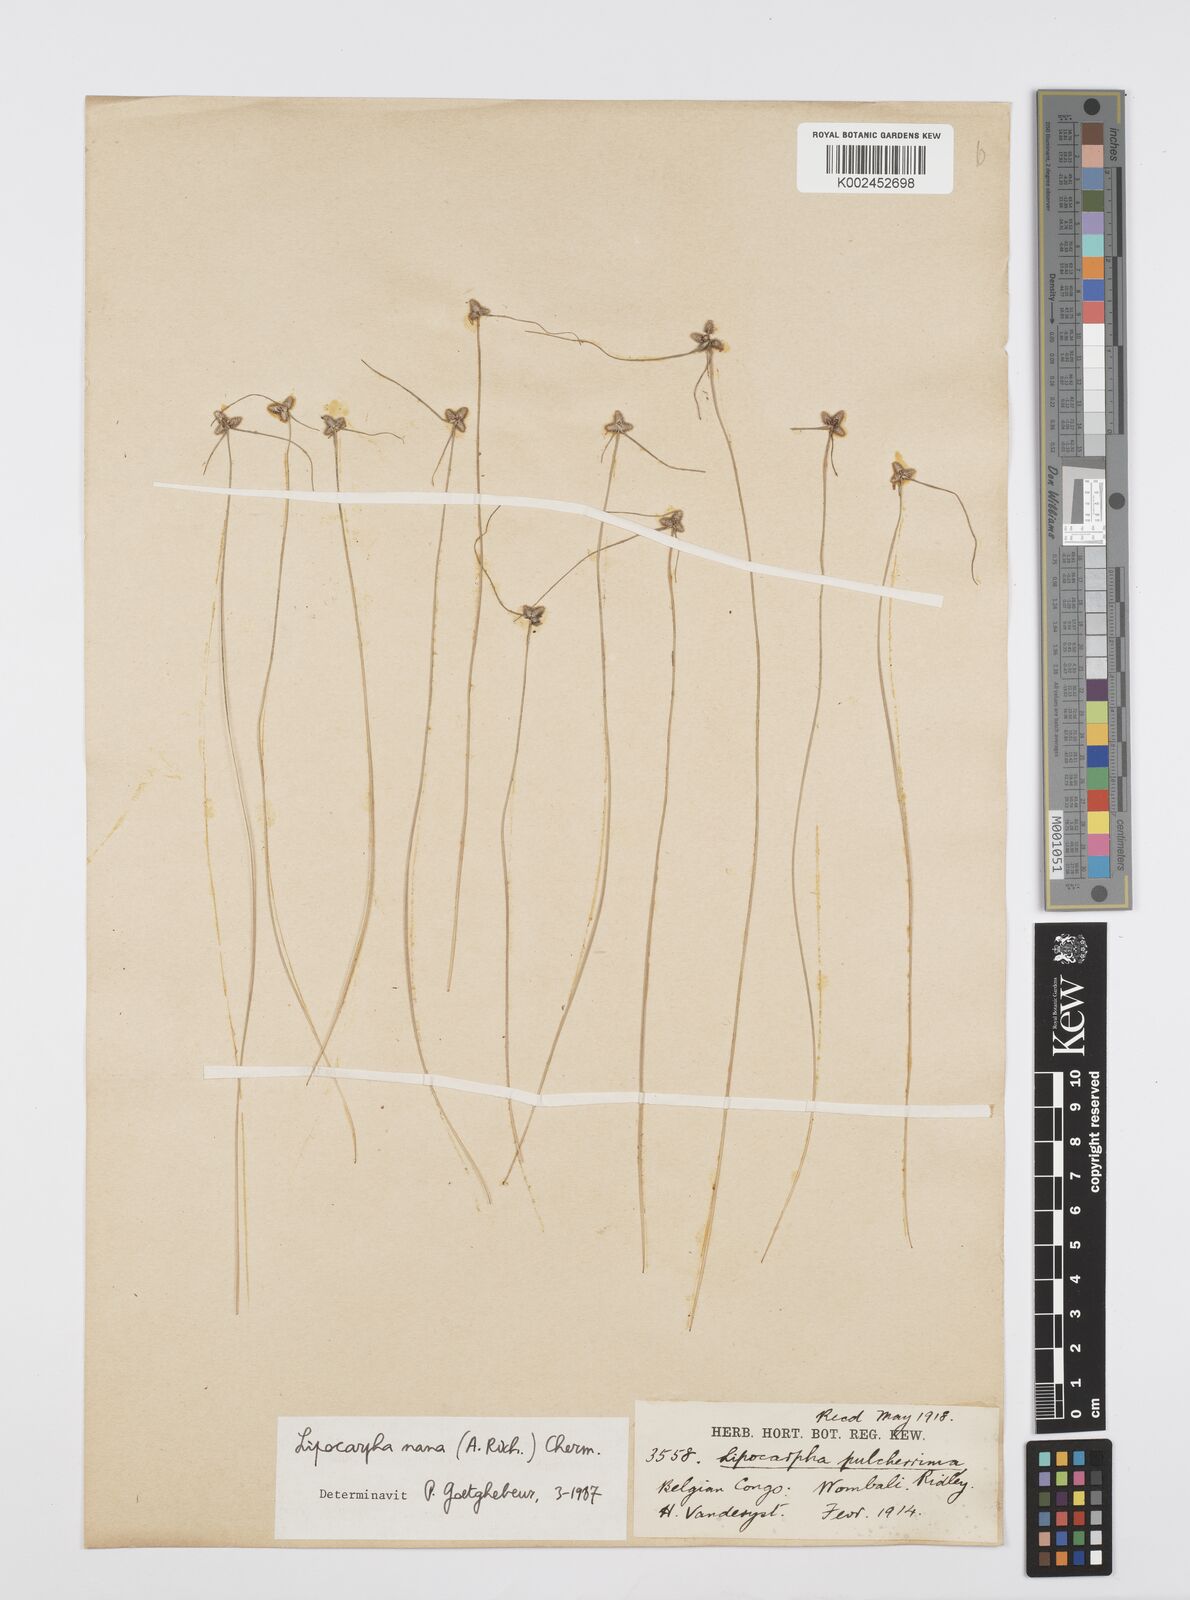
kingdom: Plantae
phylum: Tracheophyta
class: Liliopsida
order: Poales
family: Cyperaceae
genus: Cyperus
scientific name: Cyperus persquarrosus
